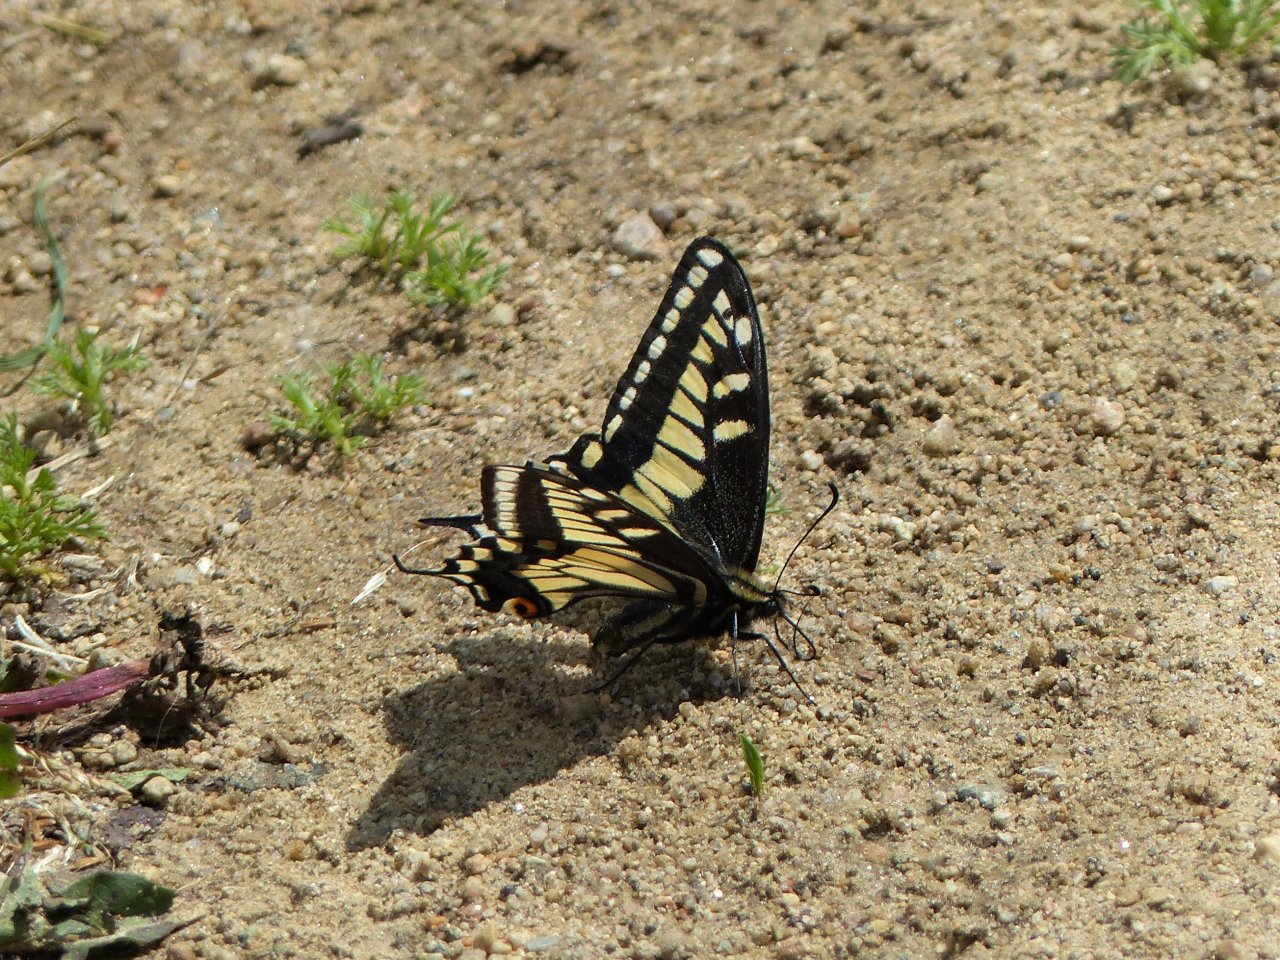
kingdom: Animalia
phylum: Arthropoda
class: Insecta
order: Lepidoptera
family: Papilionidae
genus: Papilio
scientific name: Papilio zelicaon
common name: Anise Swallowtail
